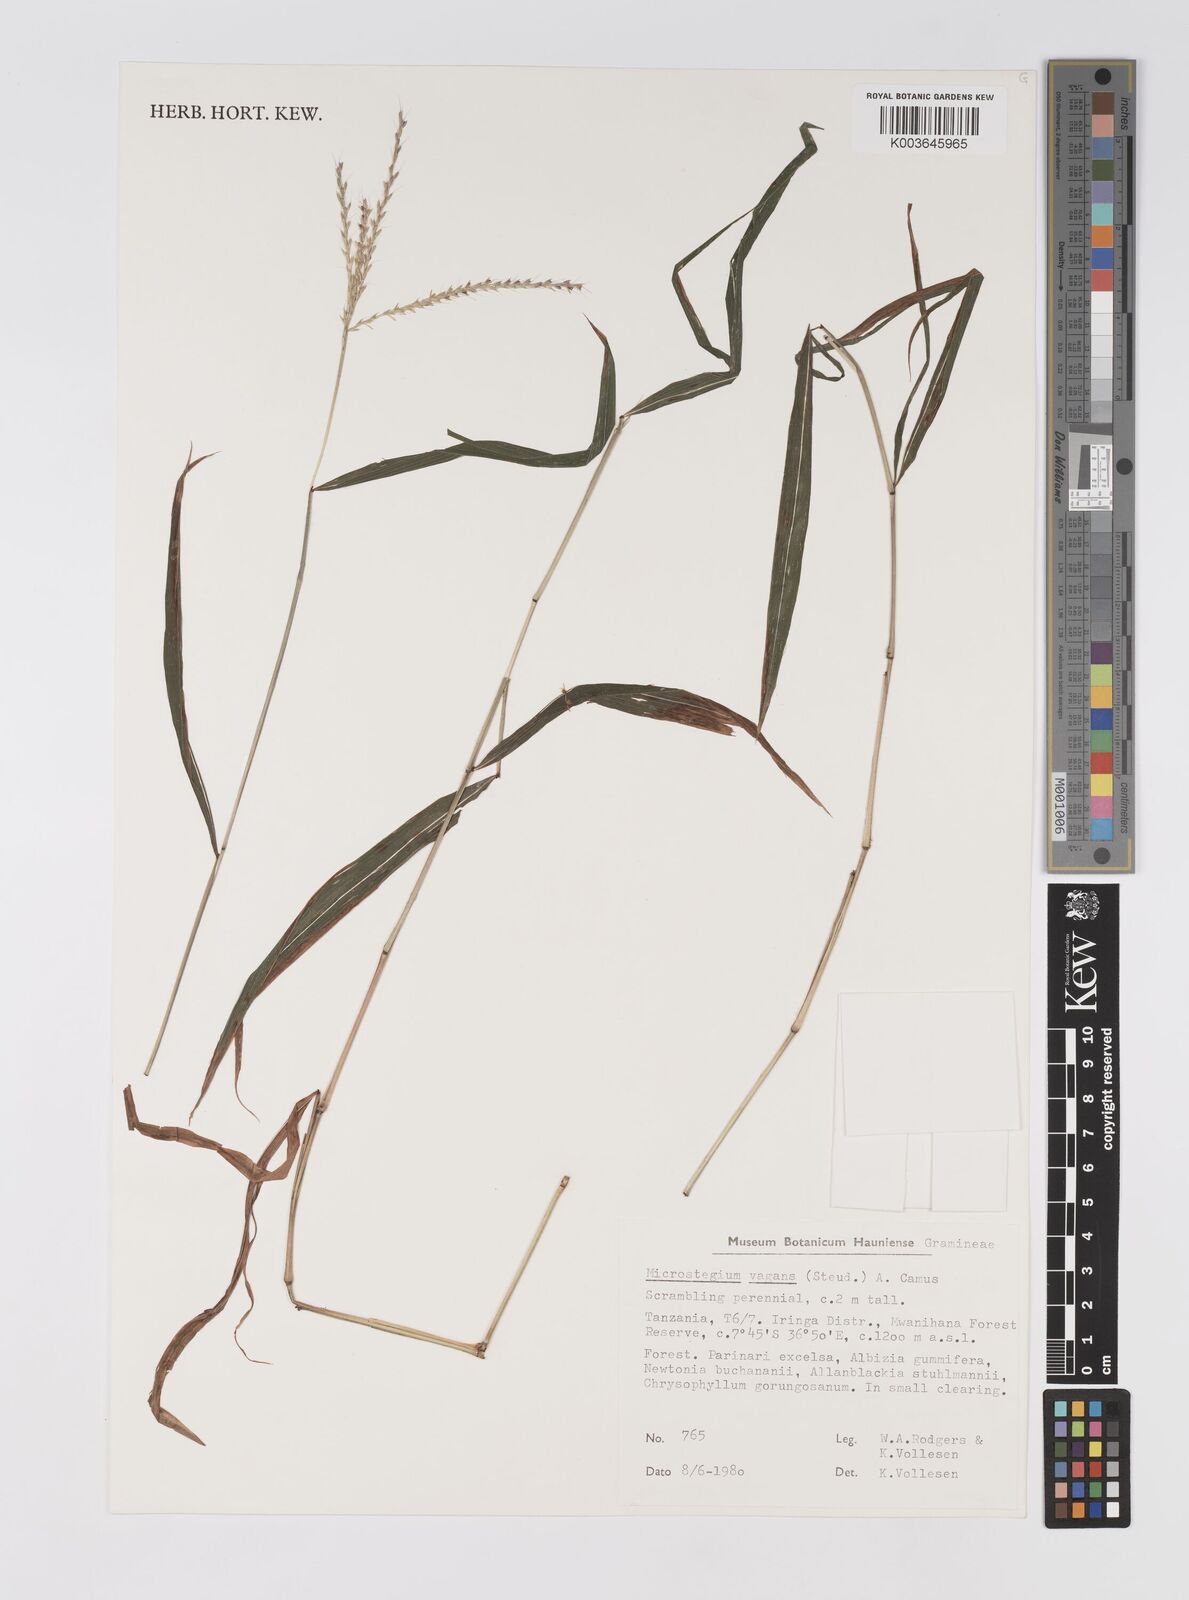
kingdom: Plantae
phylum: Tracheophyta
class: Liliopsida
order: Poales
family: Poaceae
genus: Microstegium
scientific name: Microstegium fasciculatum
